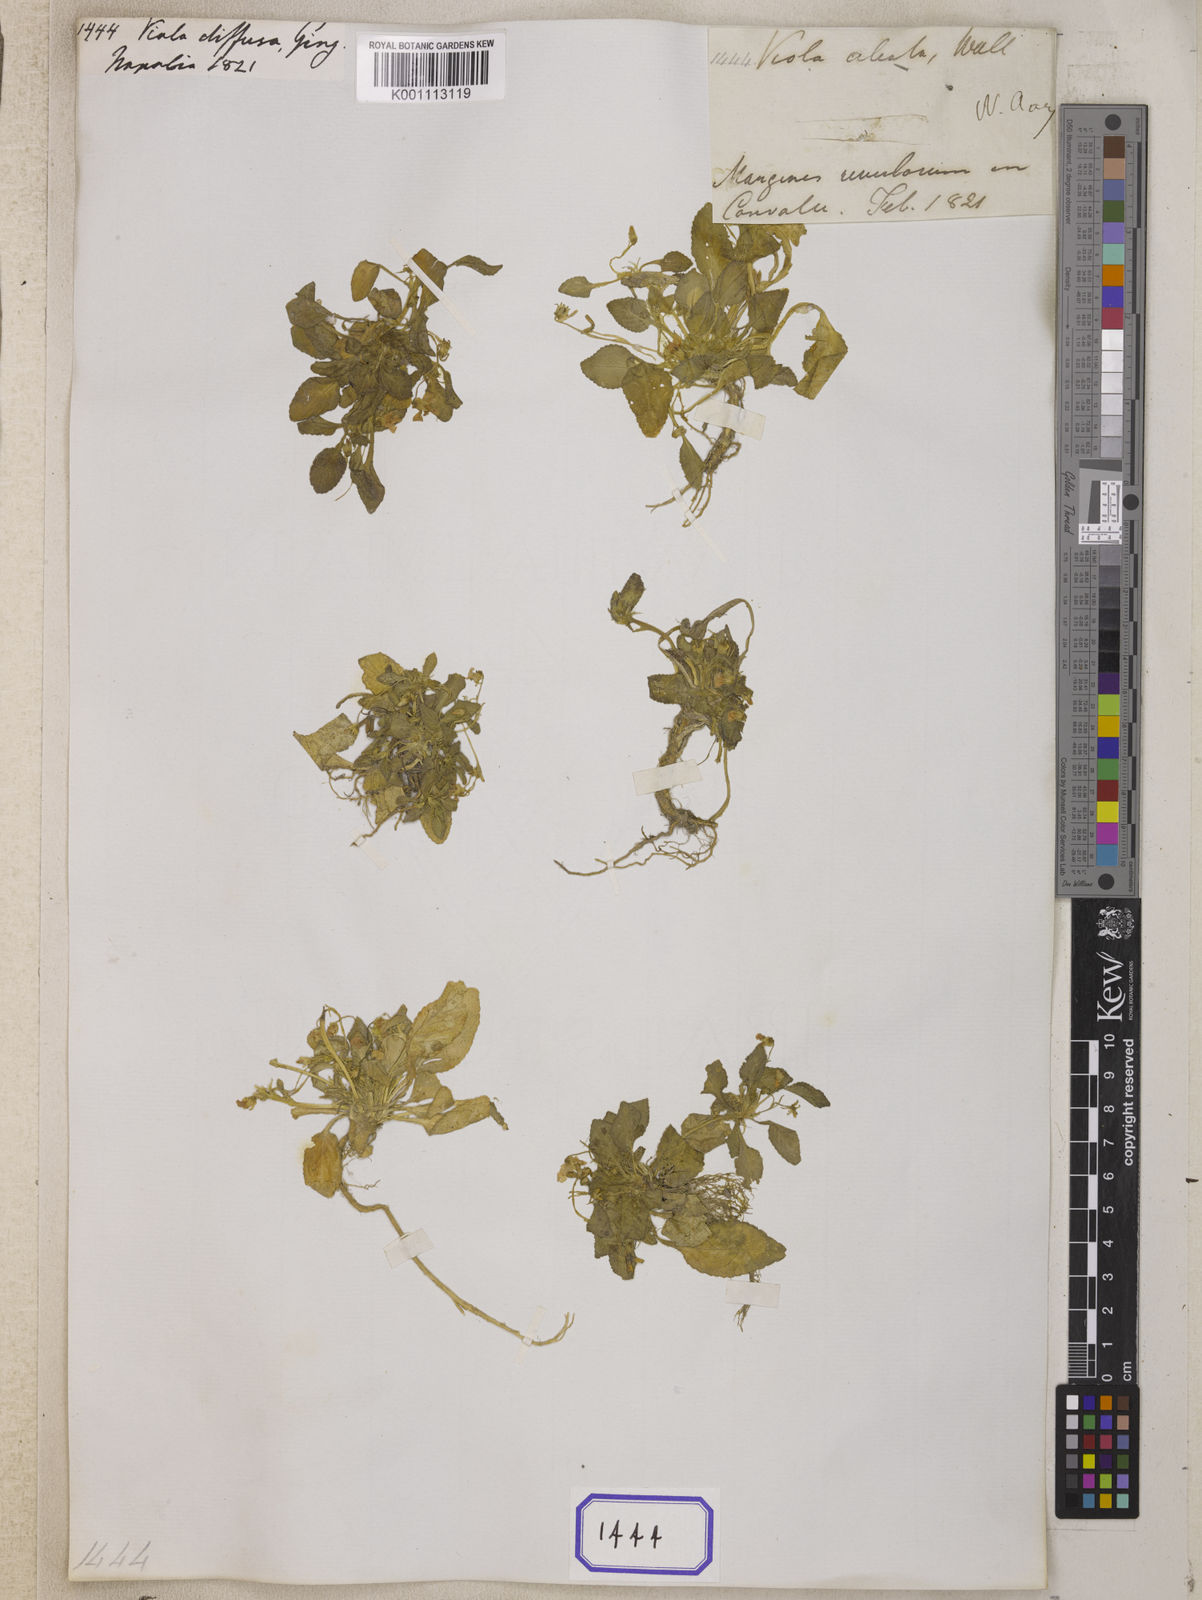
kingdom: Plantae
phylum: Tracheophyta
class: Magnoliopsida
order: Malpighiales
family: Violaceae
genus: Viola
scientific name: Viola diffusa
